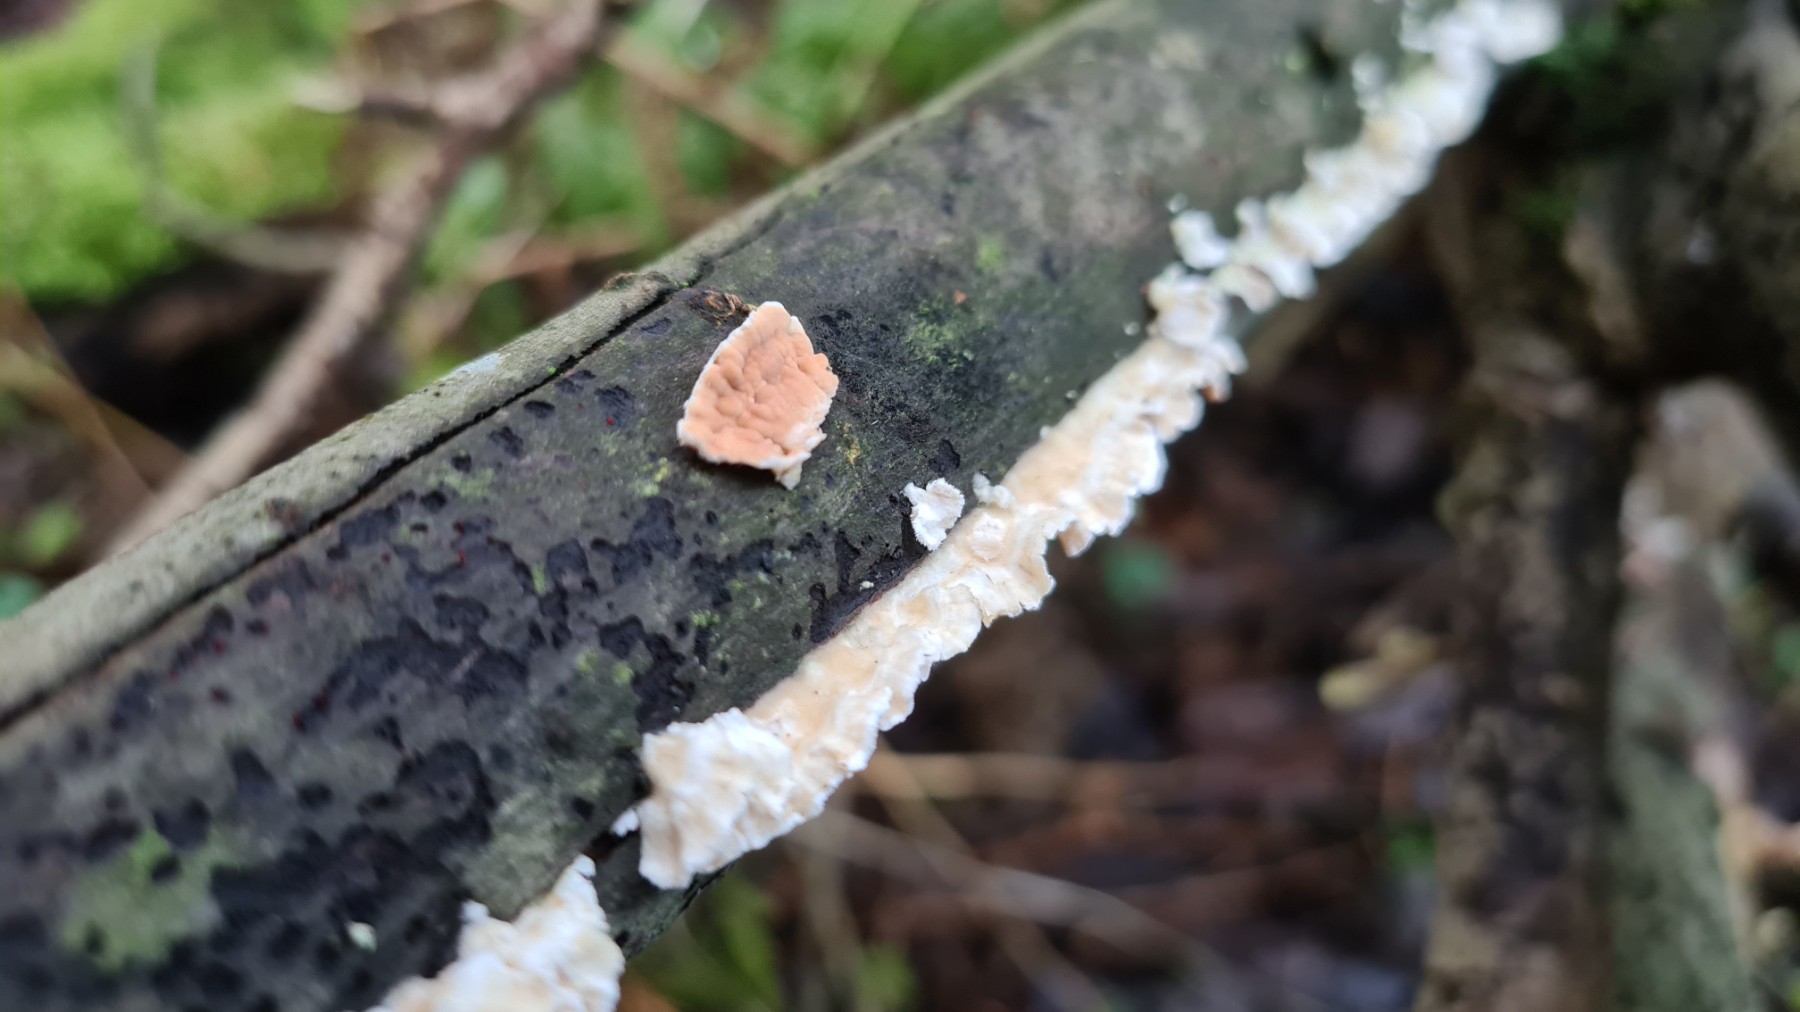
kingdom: Fungi
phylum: Basidiomycota
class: Agaricomycetes
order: Agaricales
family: Physalacriaceae
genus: Cylindrobasidium
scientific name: Cylindrobasidium evolvens
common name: sprækkehinde
